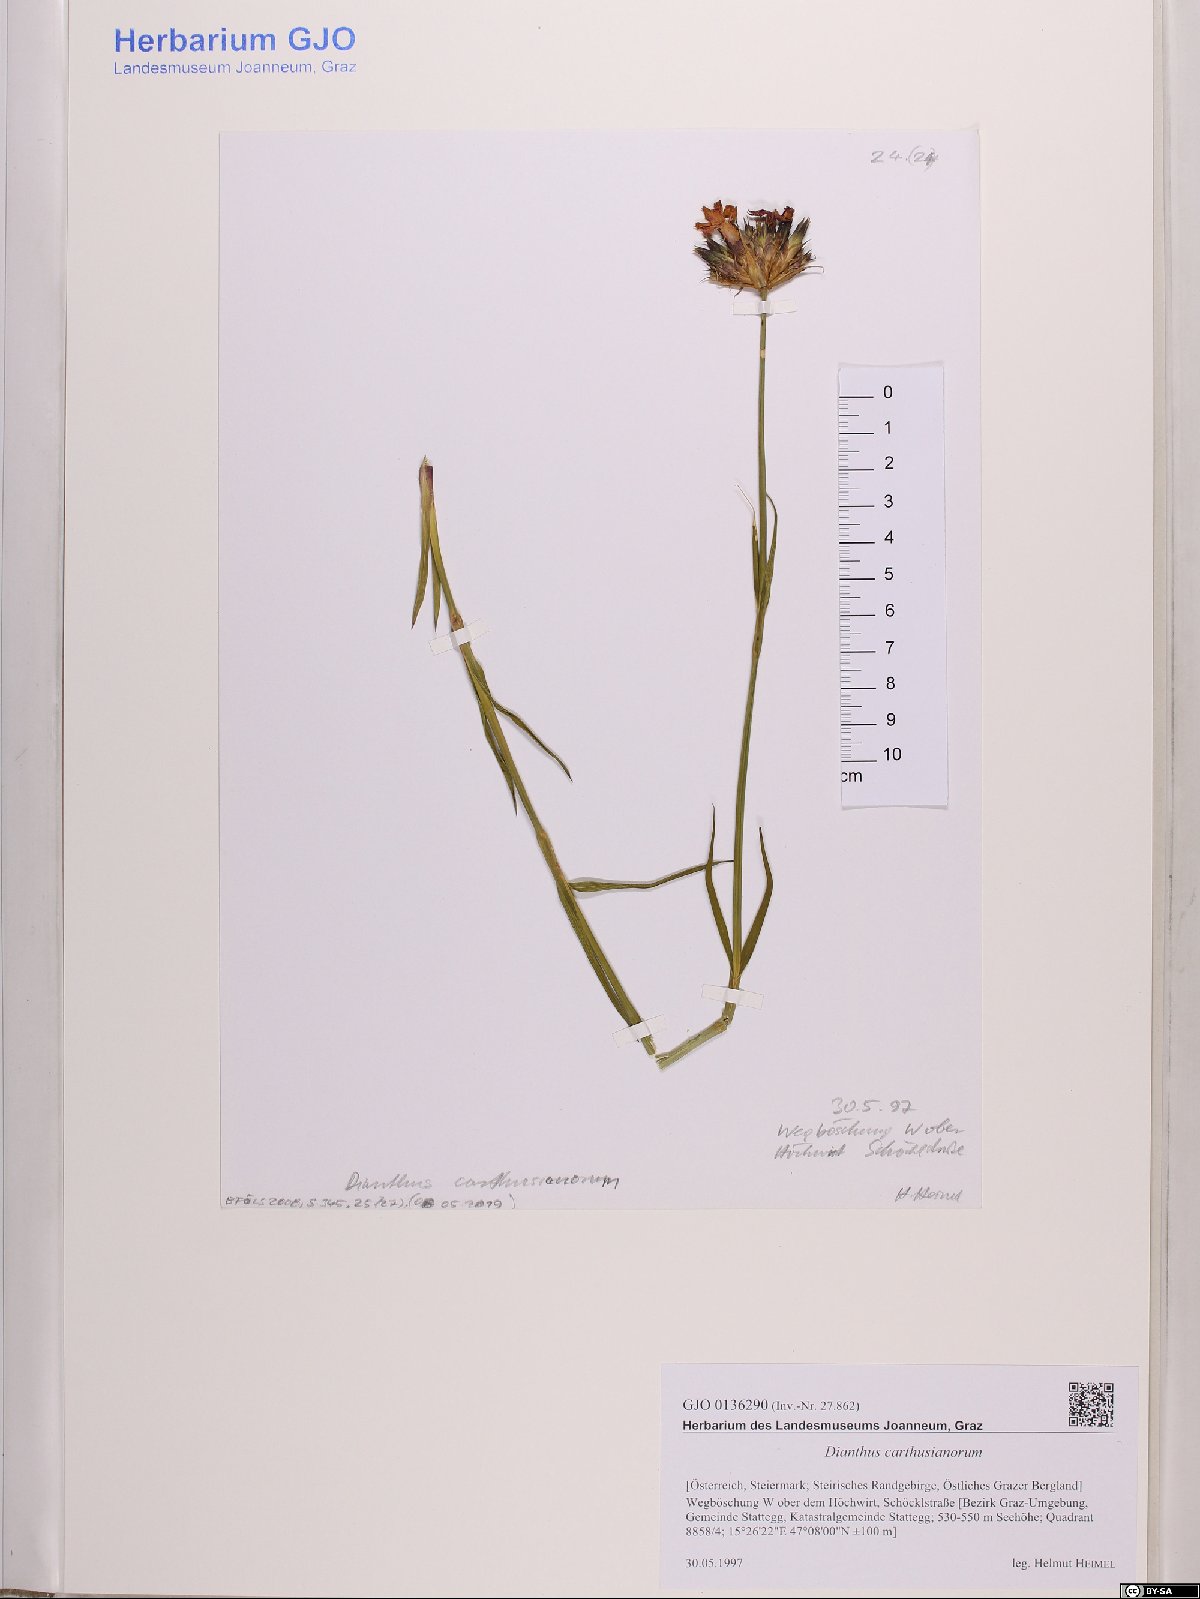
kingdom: Plantae
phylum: Tracheophyta
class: Magnoliopsida
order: Caryophyllales
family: Caryophyllaceae
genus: Dianthus
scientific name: Dianthus carthusianorum
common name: Carthusian pink
